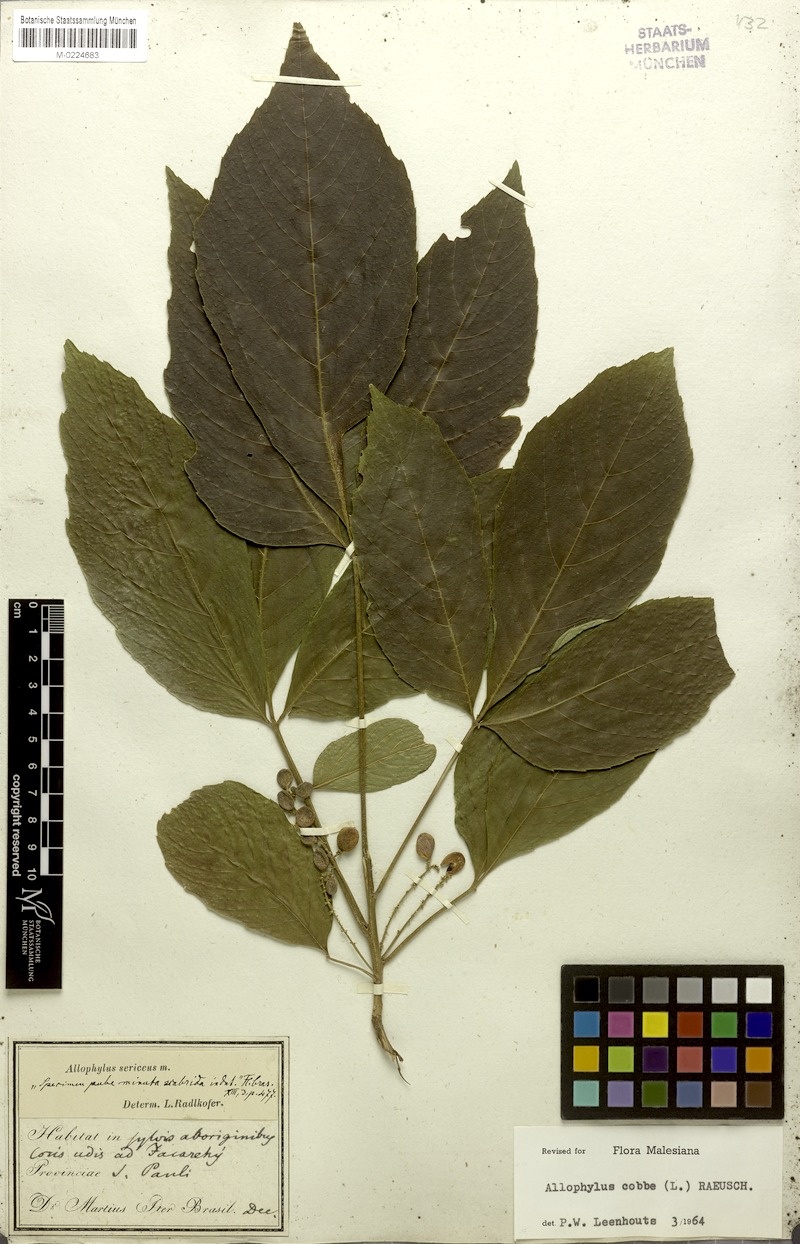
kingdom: Plantae
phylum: Tracheophyta
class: Magnoliopsida
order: Sapindales
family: Sapindaceae
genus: Allophylus
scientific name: Allophylus sericeus
